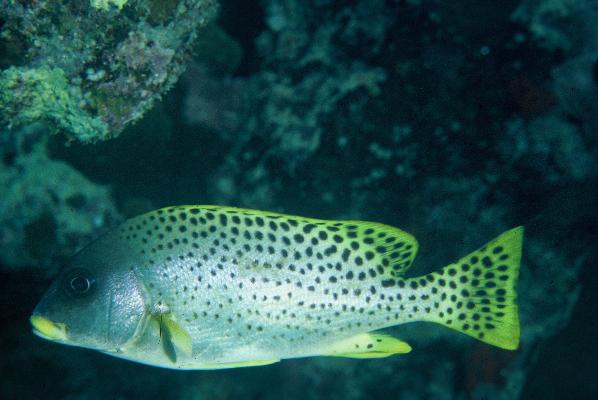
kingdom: Animalia
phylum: Chordata
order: Perciformes
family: Haemulidae
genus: Plectorhinchus
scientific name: Plectorhinchus gaterinus
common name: Blackspotted rubberlip
